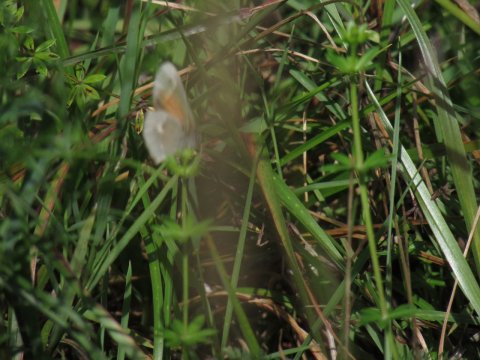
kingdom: Animalia
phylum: Arthropoda
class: Insecta
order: Lepidoptera
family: Nymphalidae
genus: Coenonympha
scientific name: Coenonympha tullia
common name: Large Heath
